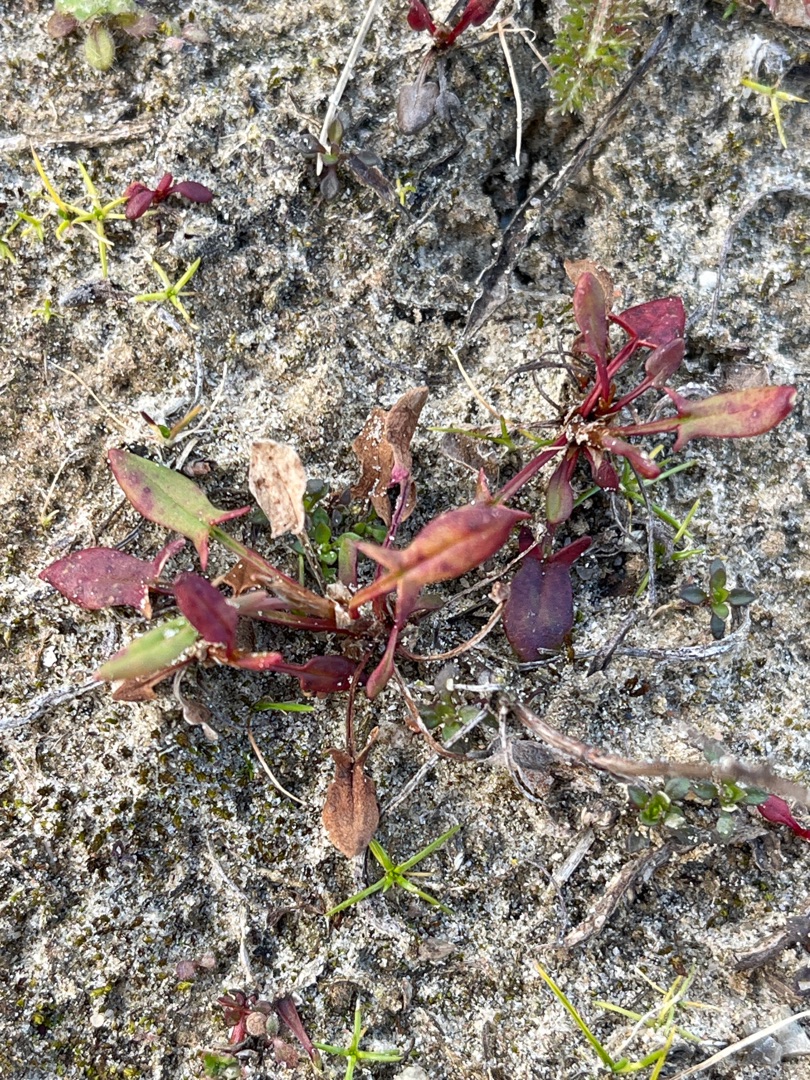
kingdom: Plantae
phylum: Tracheophyta
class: Magnoliopsida
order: Caryophyllales
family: Polygonaceae
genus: Rumex
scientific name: Rumex acetosella
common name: Rødknæ
